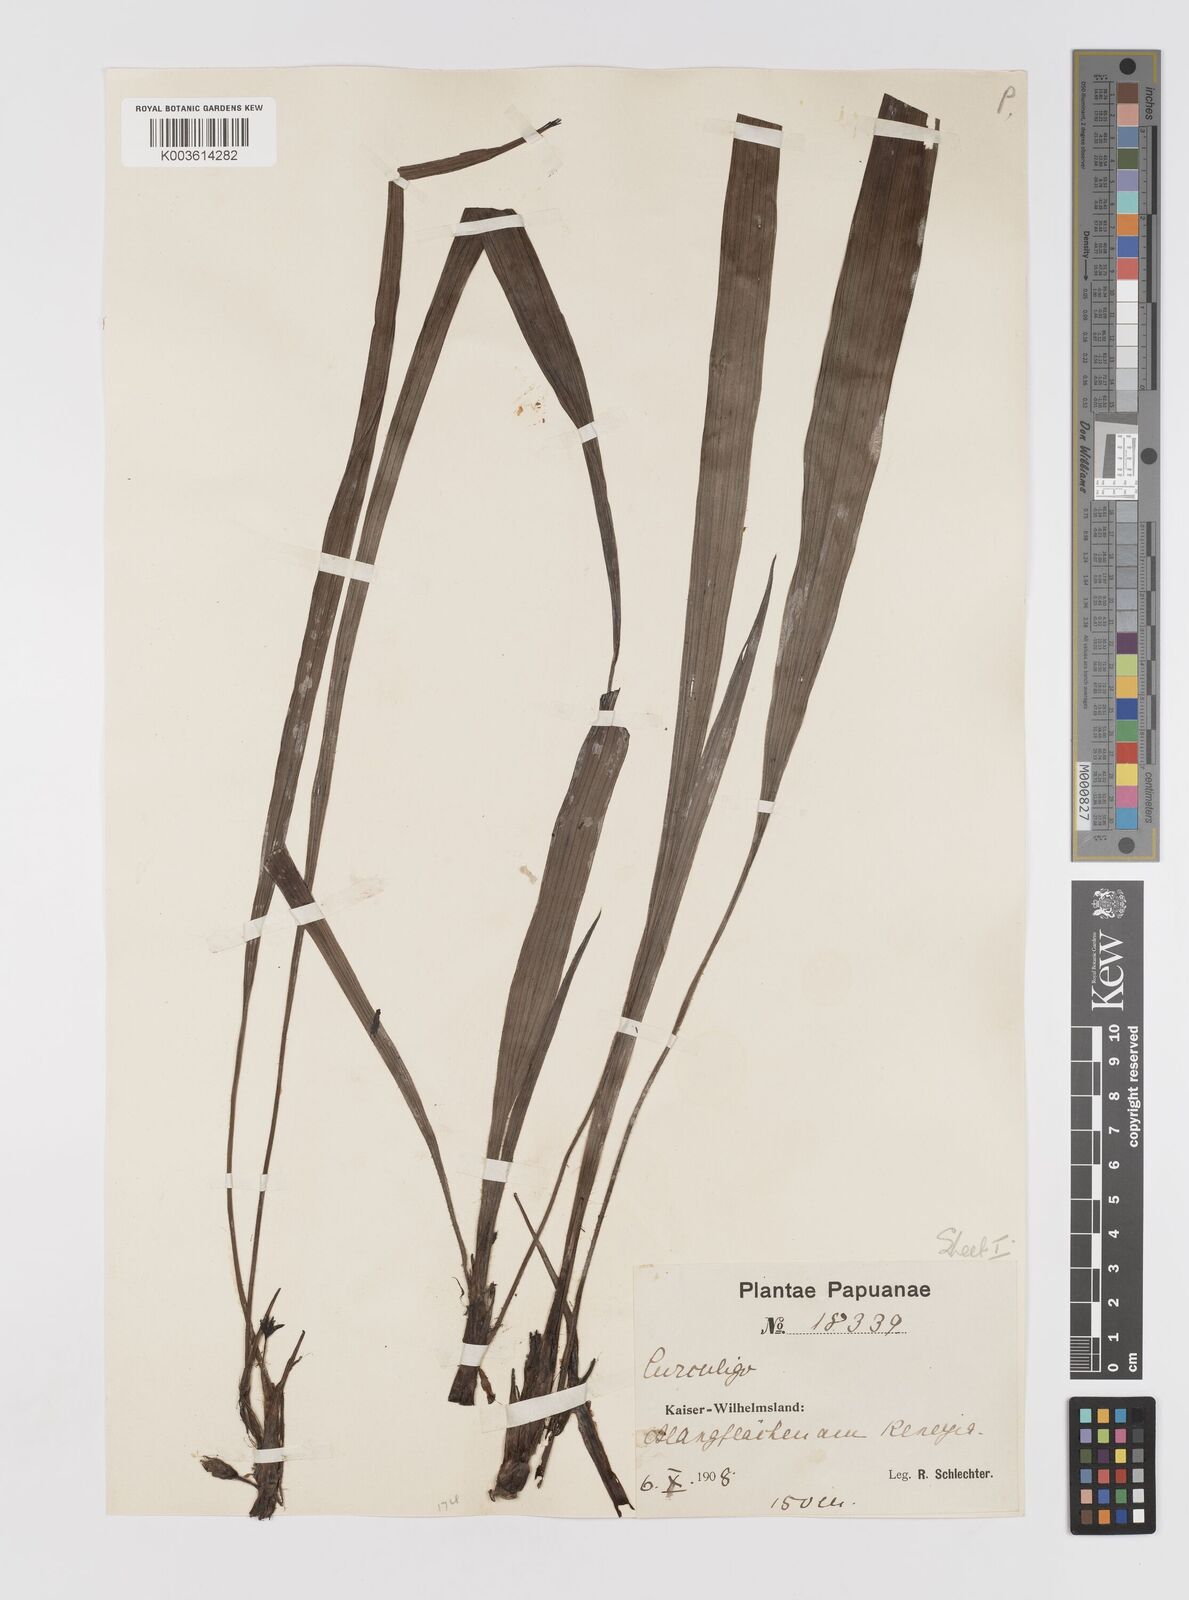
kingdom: Plantae
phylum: Tracheophyta
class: Liliopsida
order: Asparagales
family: Hypoxidaceae
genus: Curculigo
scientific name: Curculigo orchioides
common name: Golden eye-grass
